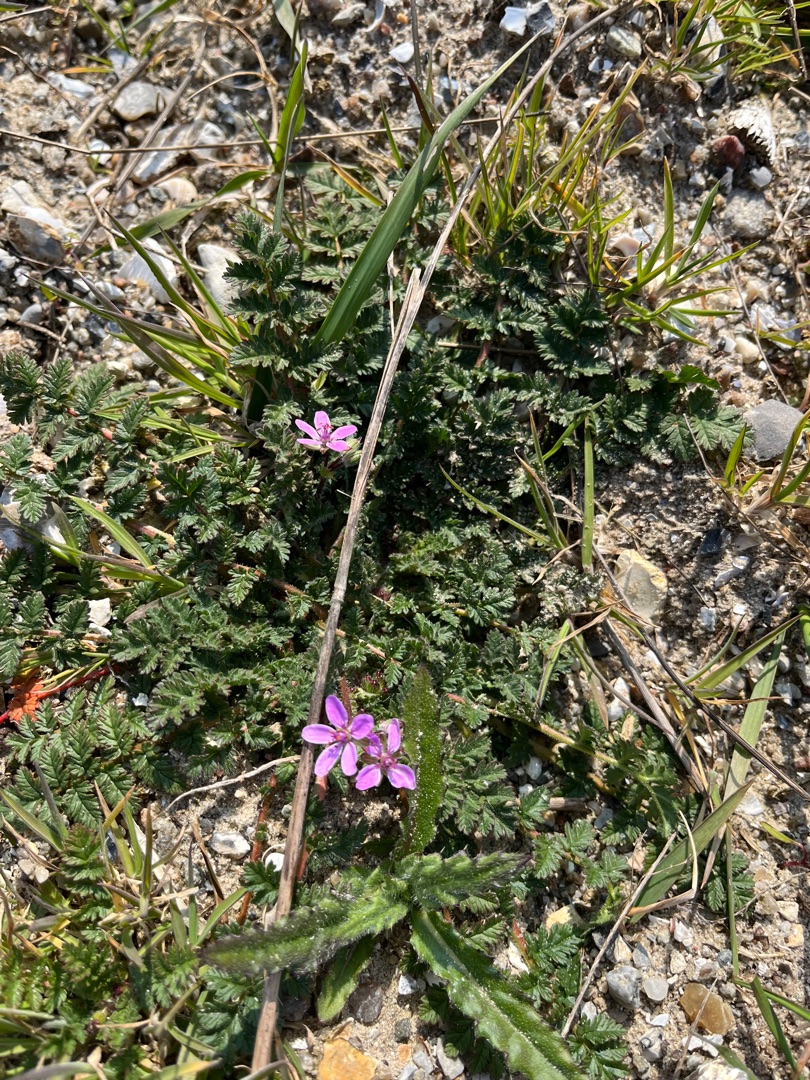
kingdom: Plantae
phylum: Tracheophyta
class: Magnoliopsida
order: Geraniales
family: Geraniaceae
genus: Erodium
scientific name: Erodium cicutarium
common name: Hejrenæb
